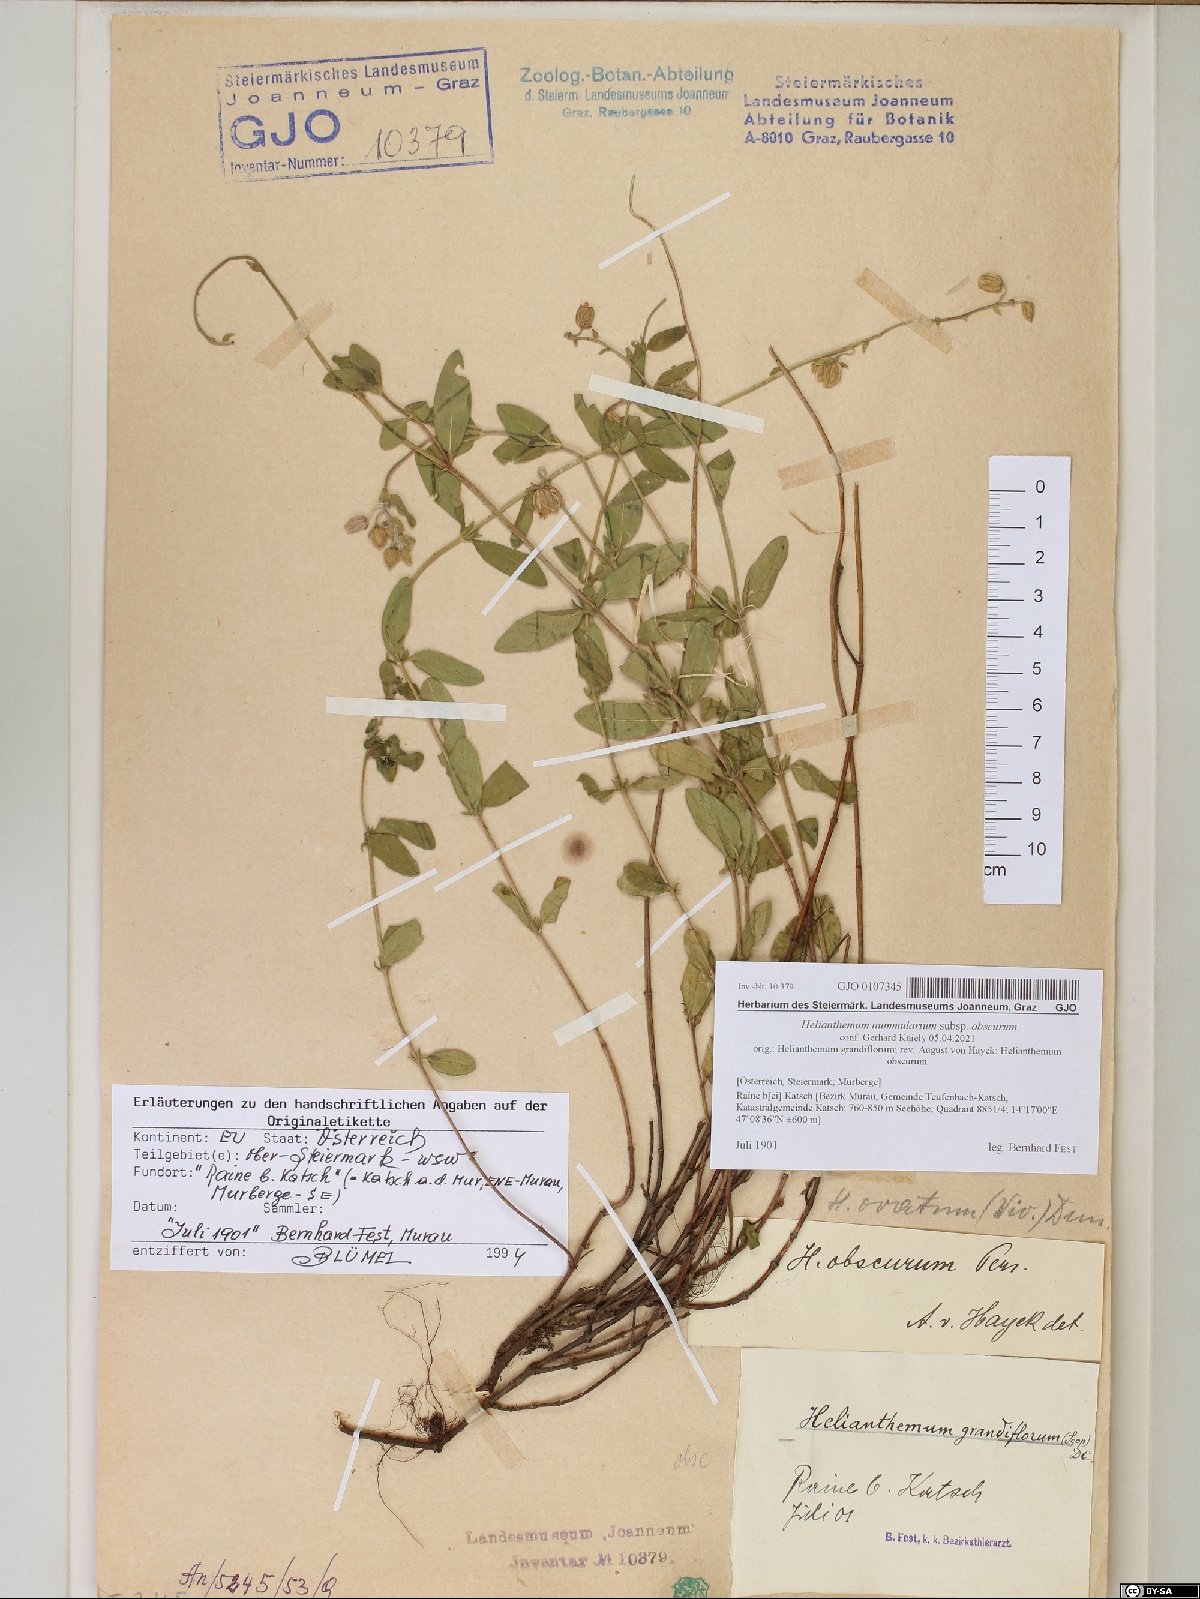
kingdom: Plantae
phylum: Tracheophyta
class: Magnoliopsida
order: Malvales
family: Cistaceae
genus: Helianthemum
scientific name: Helianthemum nummularium
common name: Common rock-rose
